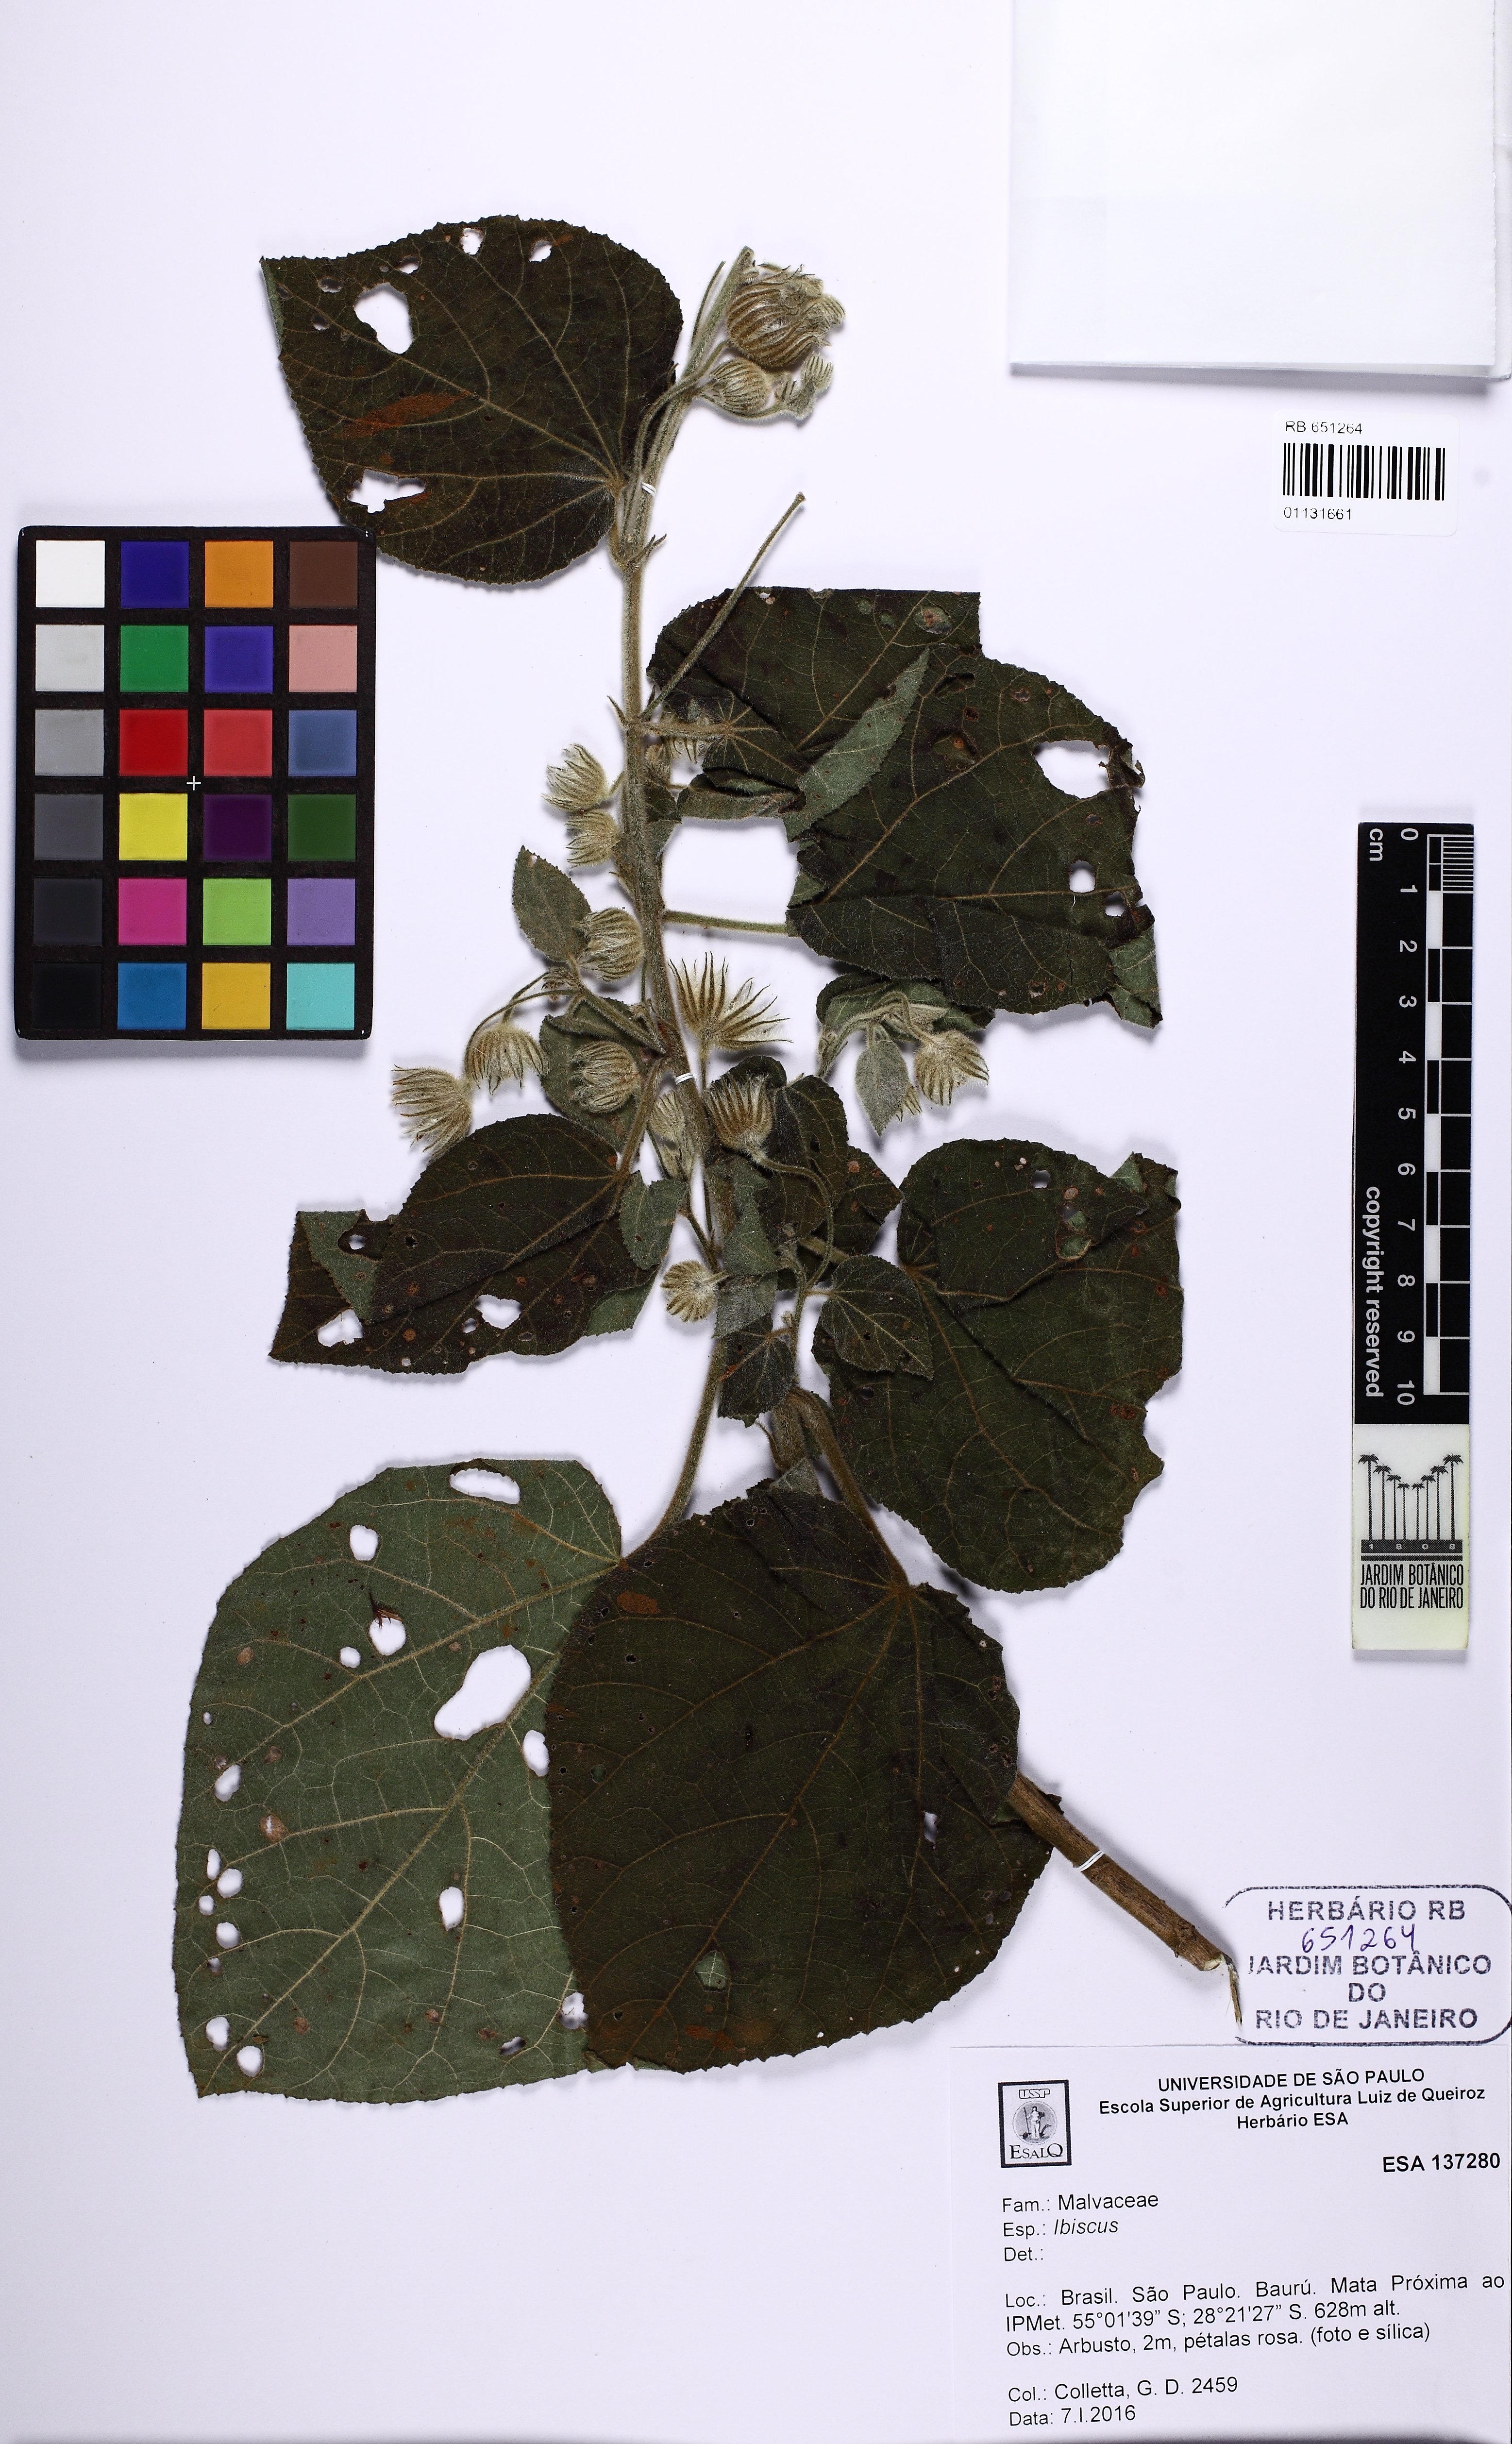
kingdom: Plantae
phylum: Tracheophyta
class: Magnoliopsida
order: Malvales
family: Malvaceae
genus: Pavonia
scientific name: Pavonia malacophylla
